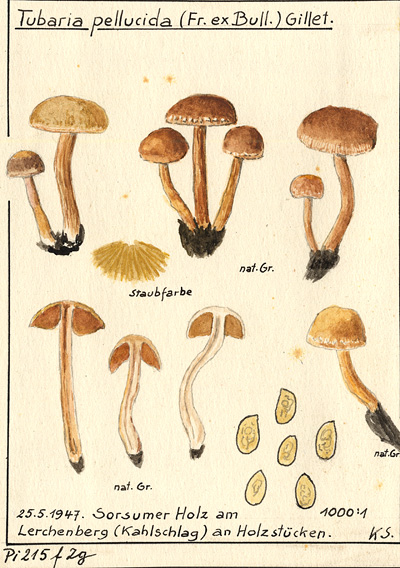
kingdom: Fungi
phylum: Basidiomycota
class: Agaricomycetes
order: Agaricales
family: Tubariaceae
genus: Tubaria
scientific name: Tubaria romagnesiana
